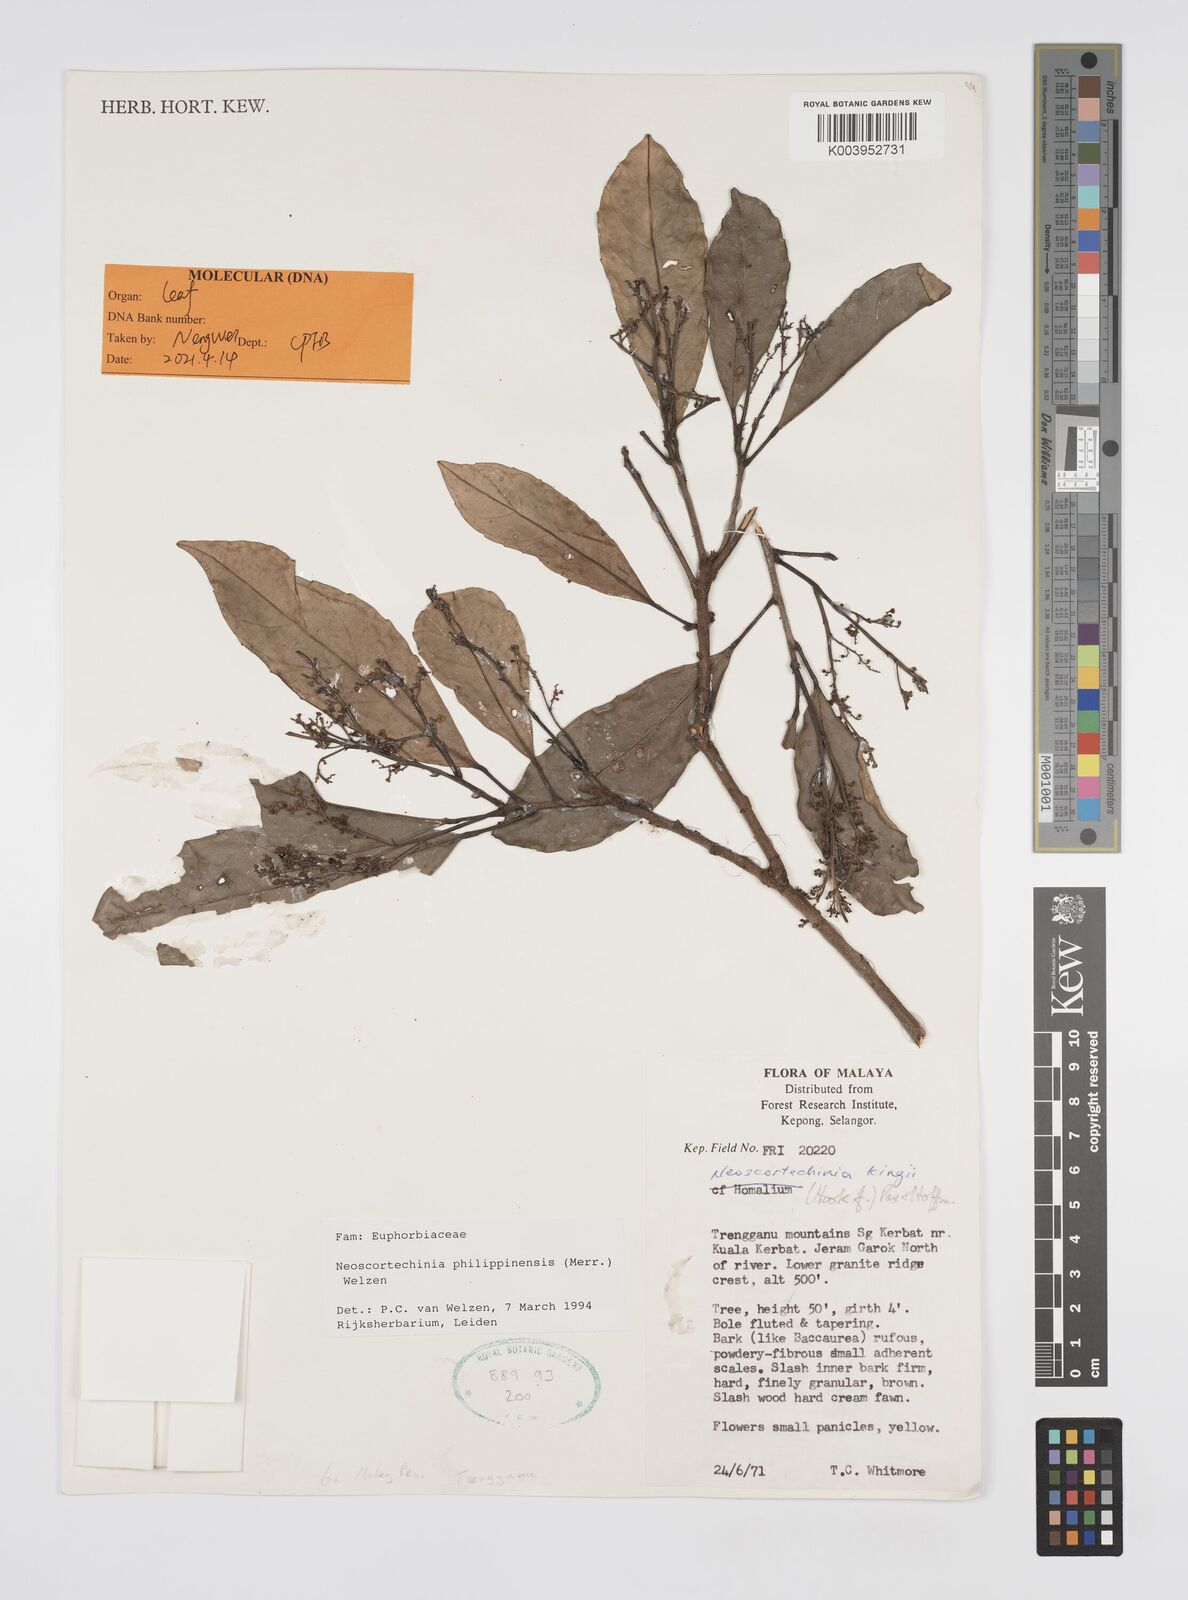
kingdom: Plantae
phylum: Tracheophyta
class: Magnoliopsida
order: Malpighiales
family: Euphorbiaceae
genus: Neoscortechinia
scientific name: Neoscortechinia philippinensis
